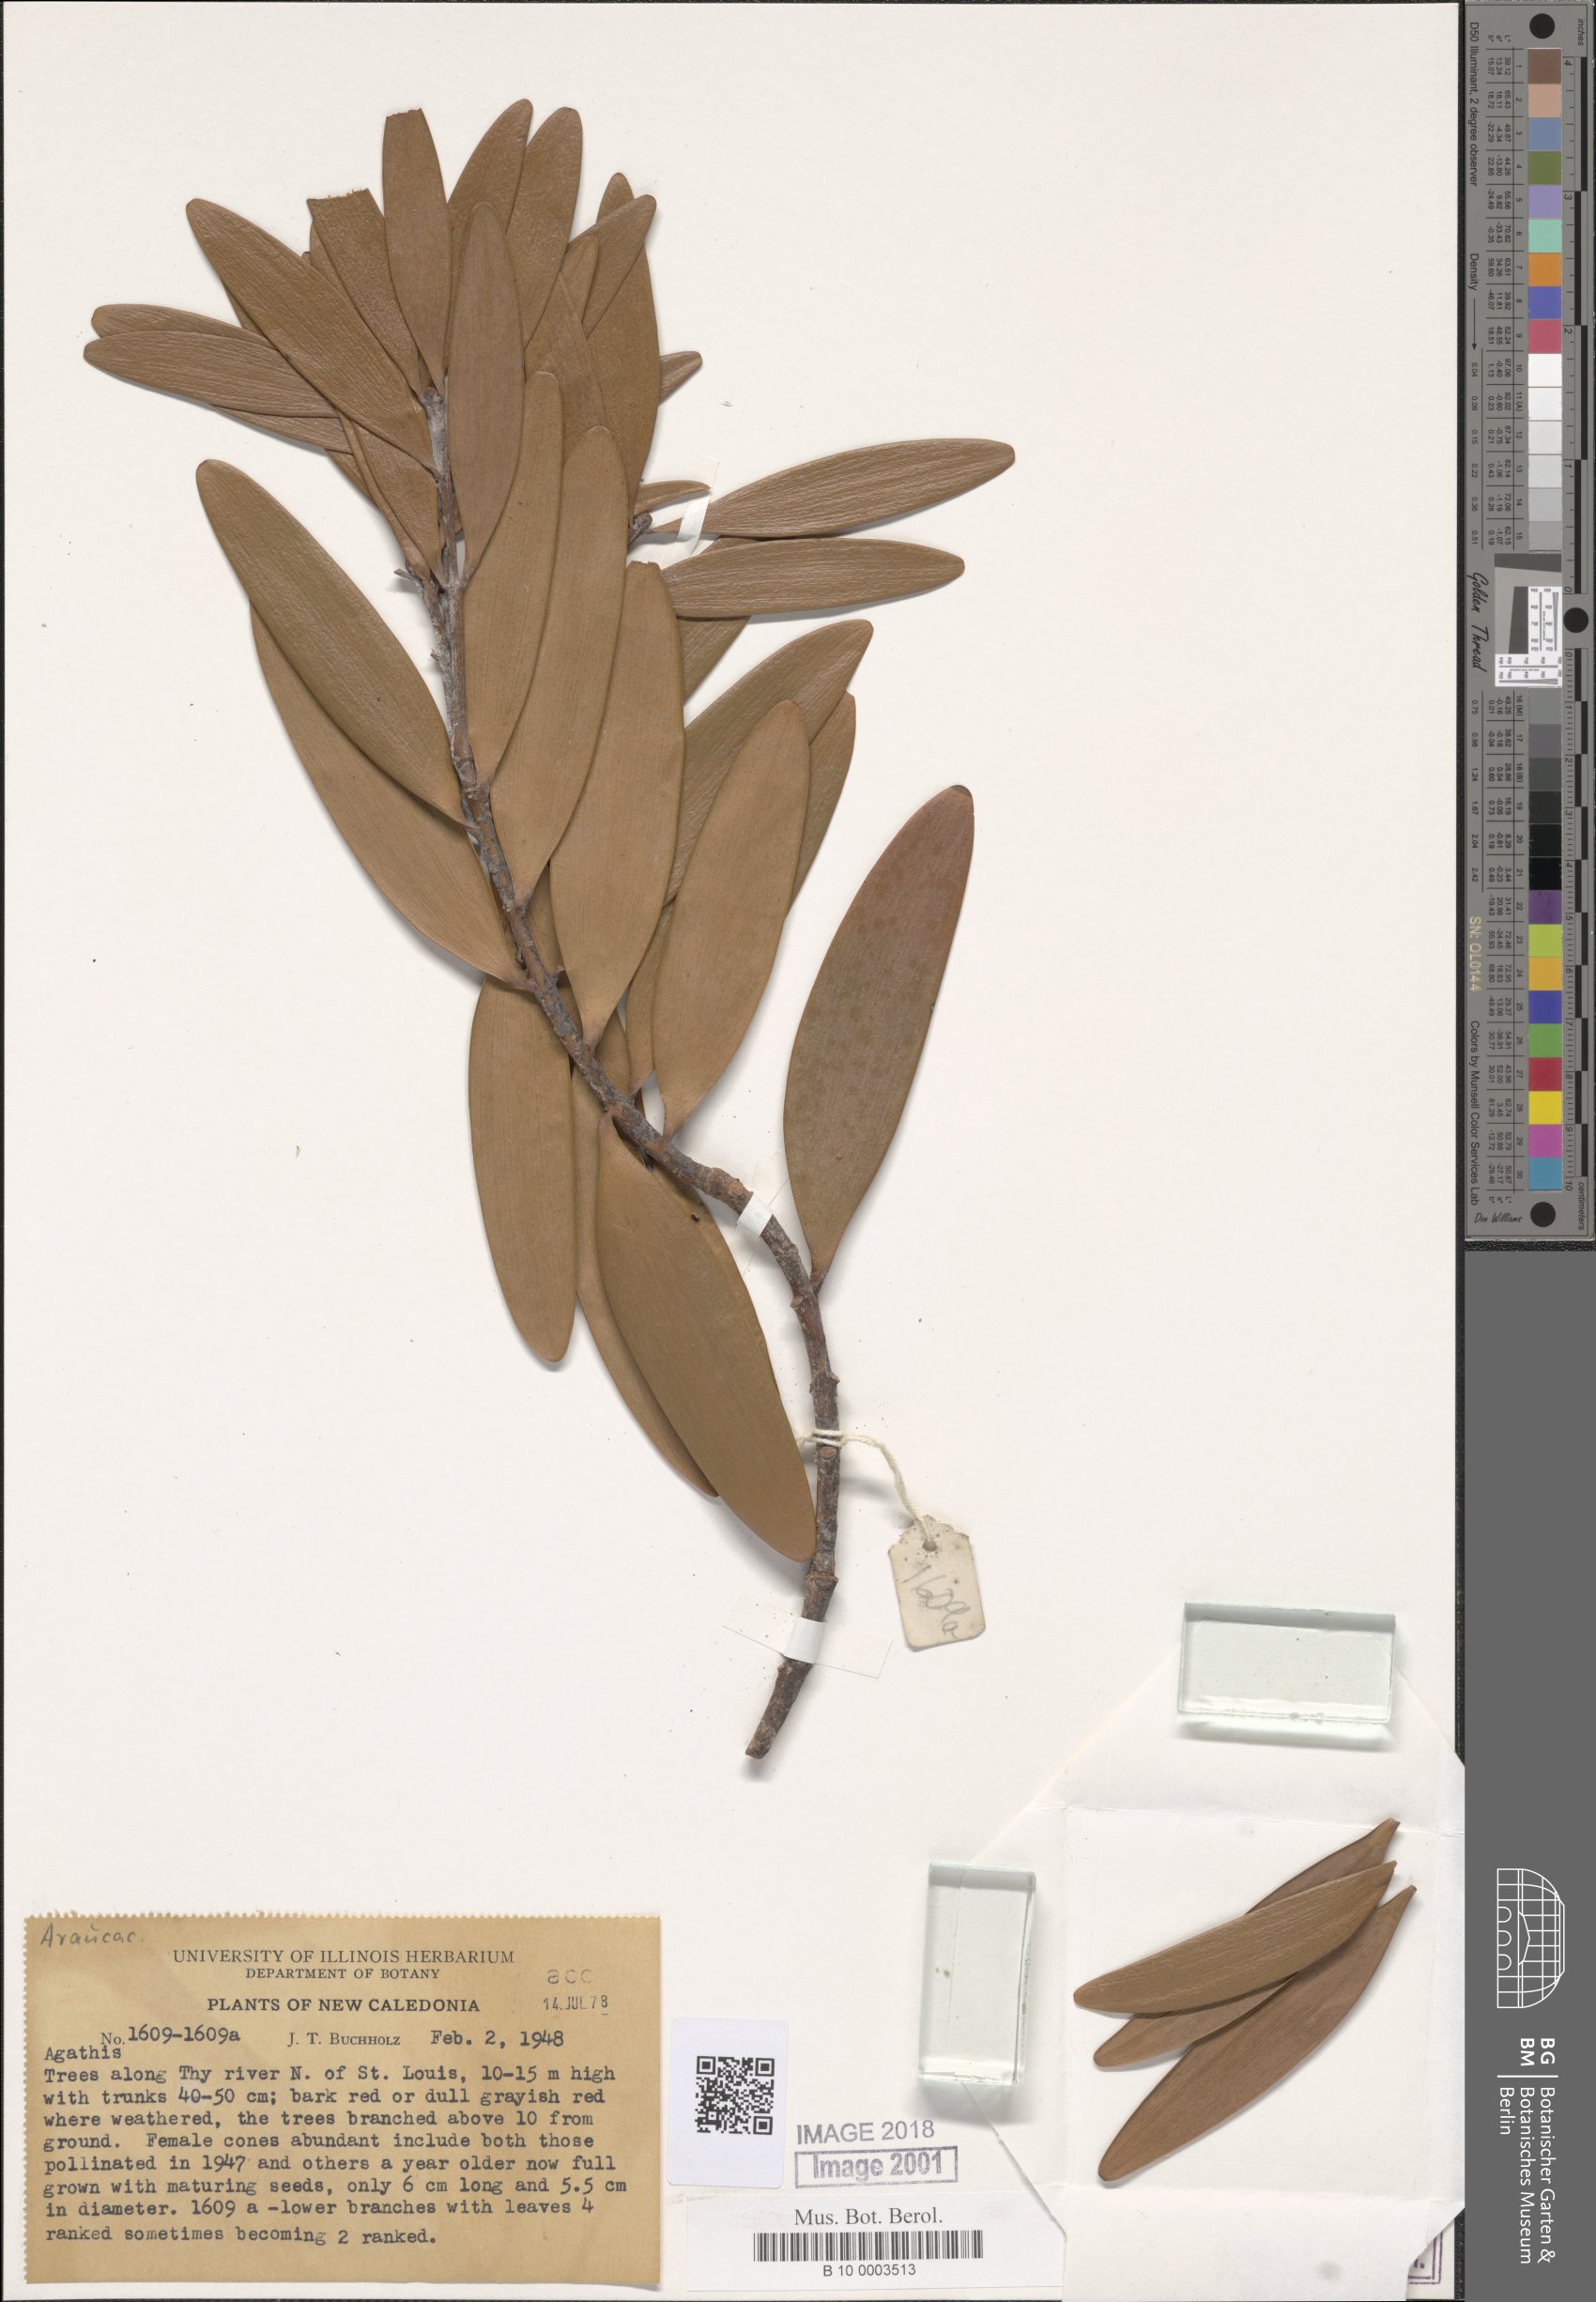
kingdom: Plantae
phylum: Tracheophyta
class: Pinopsida
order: Pinales
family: Araucariaceae
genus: Agathis
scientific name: Agathis
